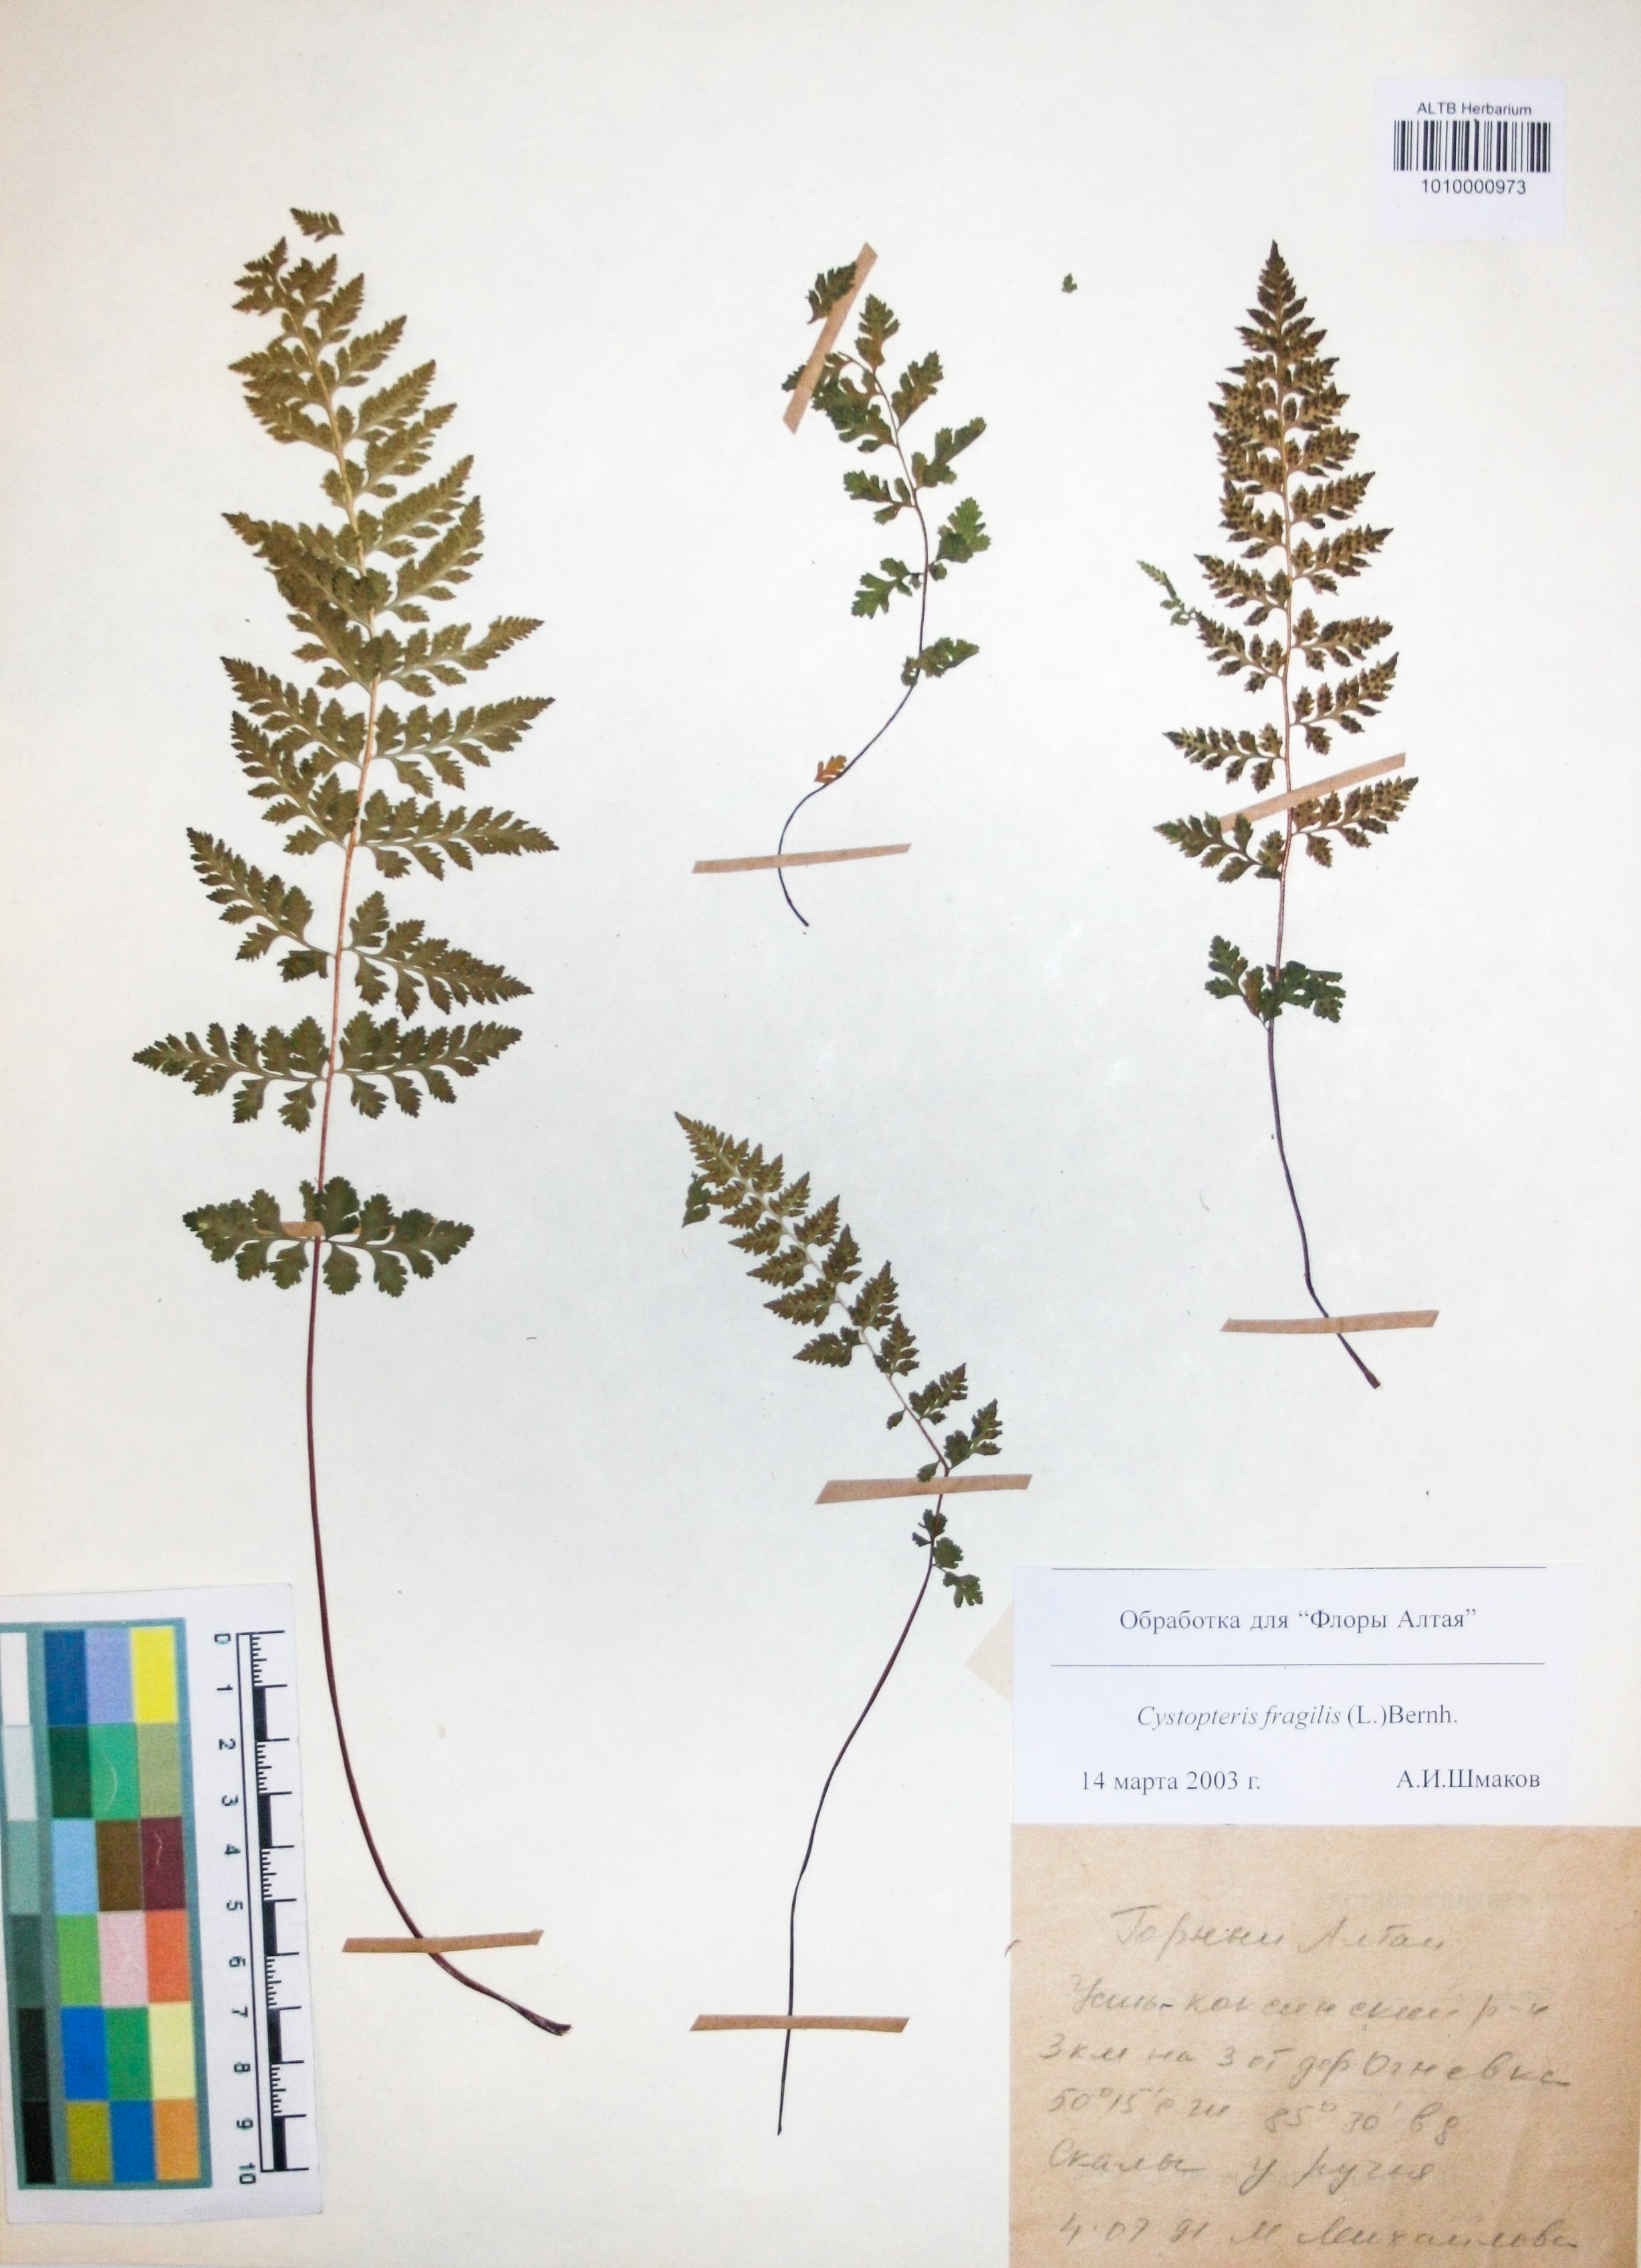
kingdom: Plantae
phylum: Tracheophyta
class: Polypodiopsida
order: Polypodiales
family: Cystopteridaceae
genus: Cystopteris
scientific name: Cystopteris fragilis
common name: Brittle bladder fern
